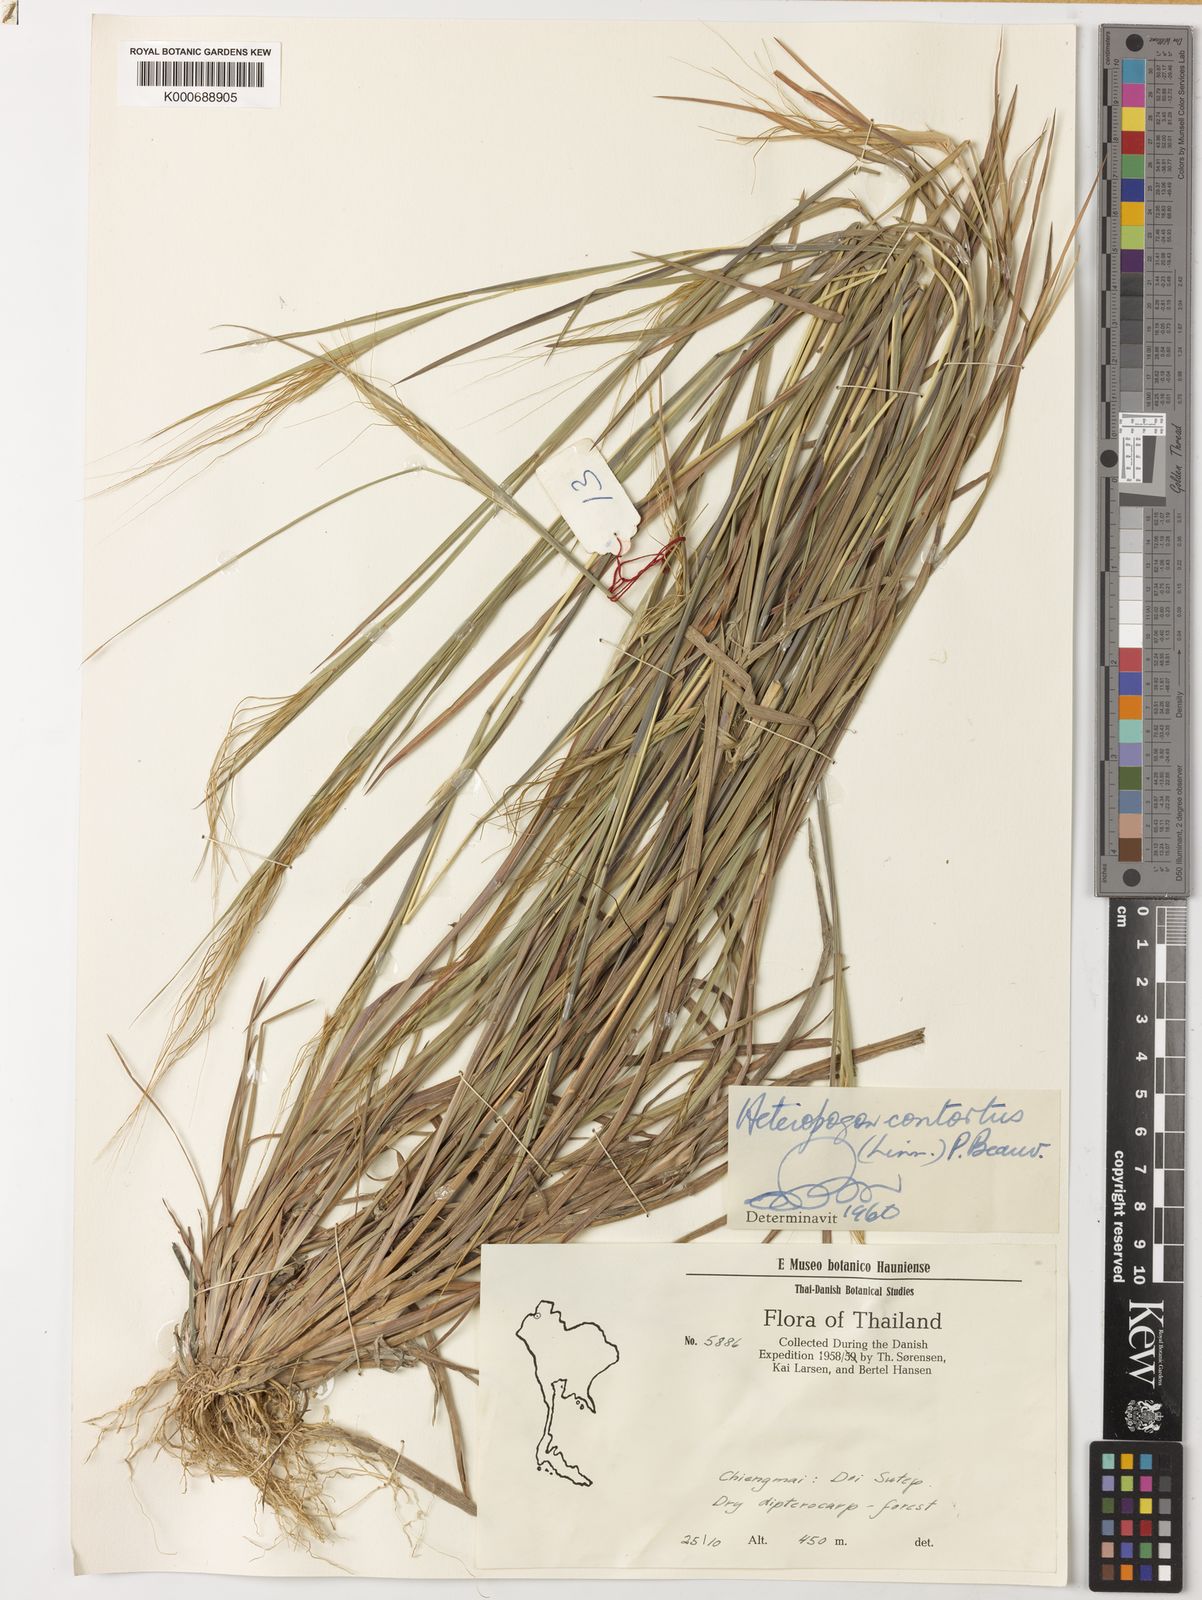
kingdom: Plantae
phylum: Tracheophyta
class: Liliopsida
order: Poales
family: Poaceae
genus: Heteropogon
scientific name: Heteropogon contortus
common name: Tanglehead
